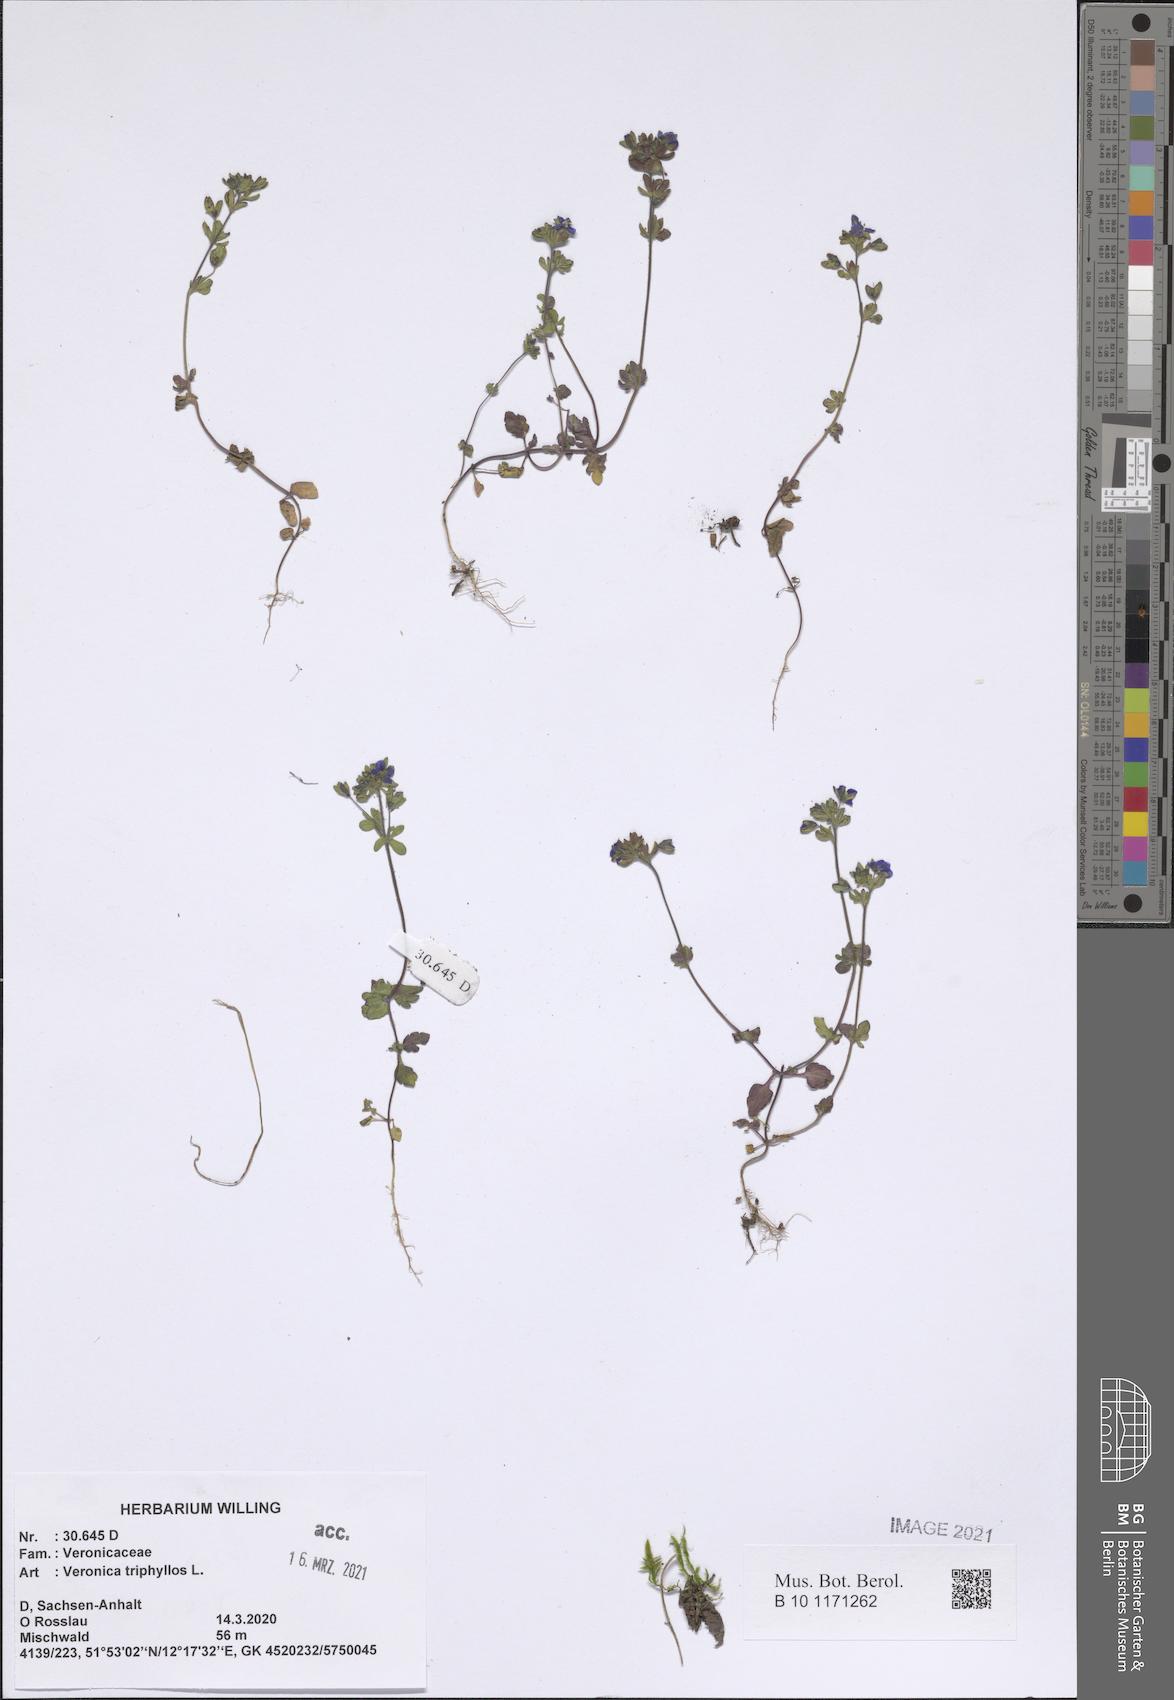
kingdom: Plantae
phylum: Tracheophyta
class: Magnoliopsida
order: Lamiales
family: Plantaginaceae
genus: Veronica
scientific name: Veronica polita
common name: Grey field-speedwell
